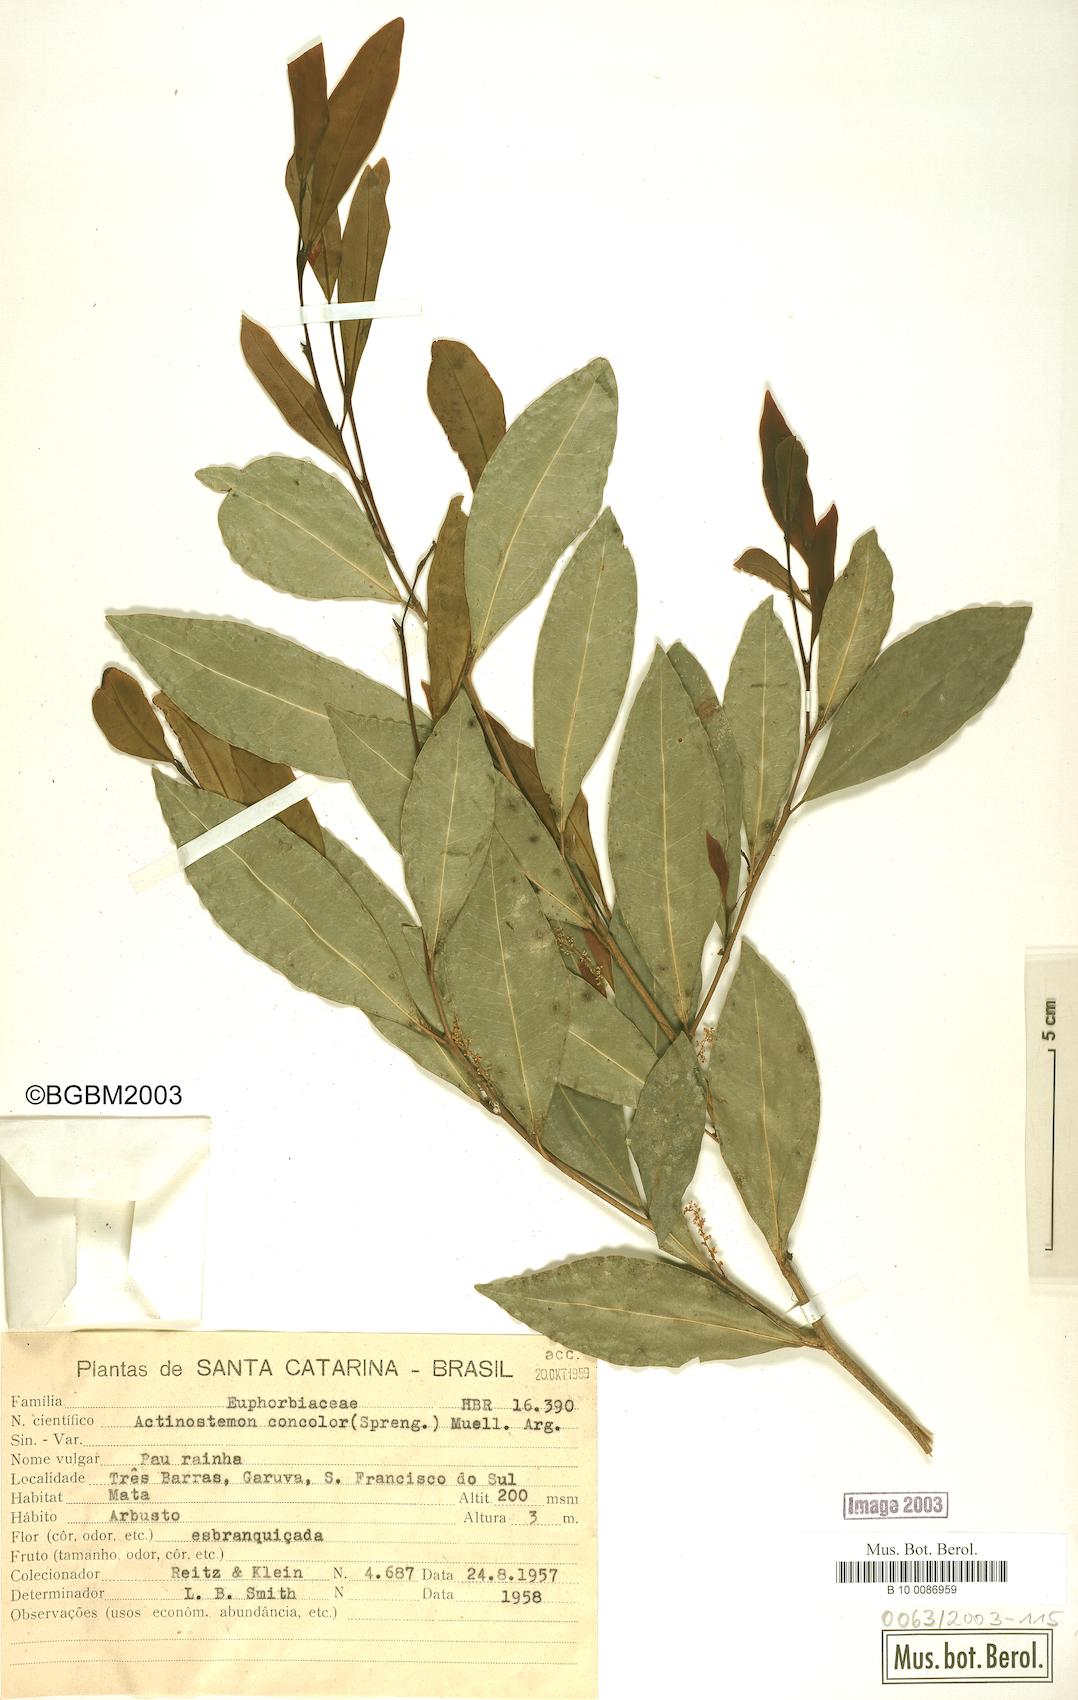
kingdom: Plantae
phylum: Tracheophyta
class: Magnoliopsida
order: Malpighiales
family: Euphorbiaceae
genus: Actinostemon
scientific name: Actinostemon concolor
